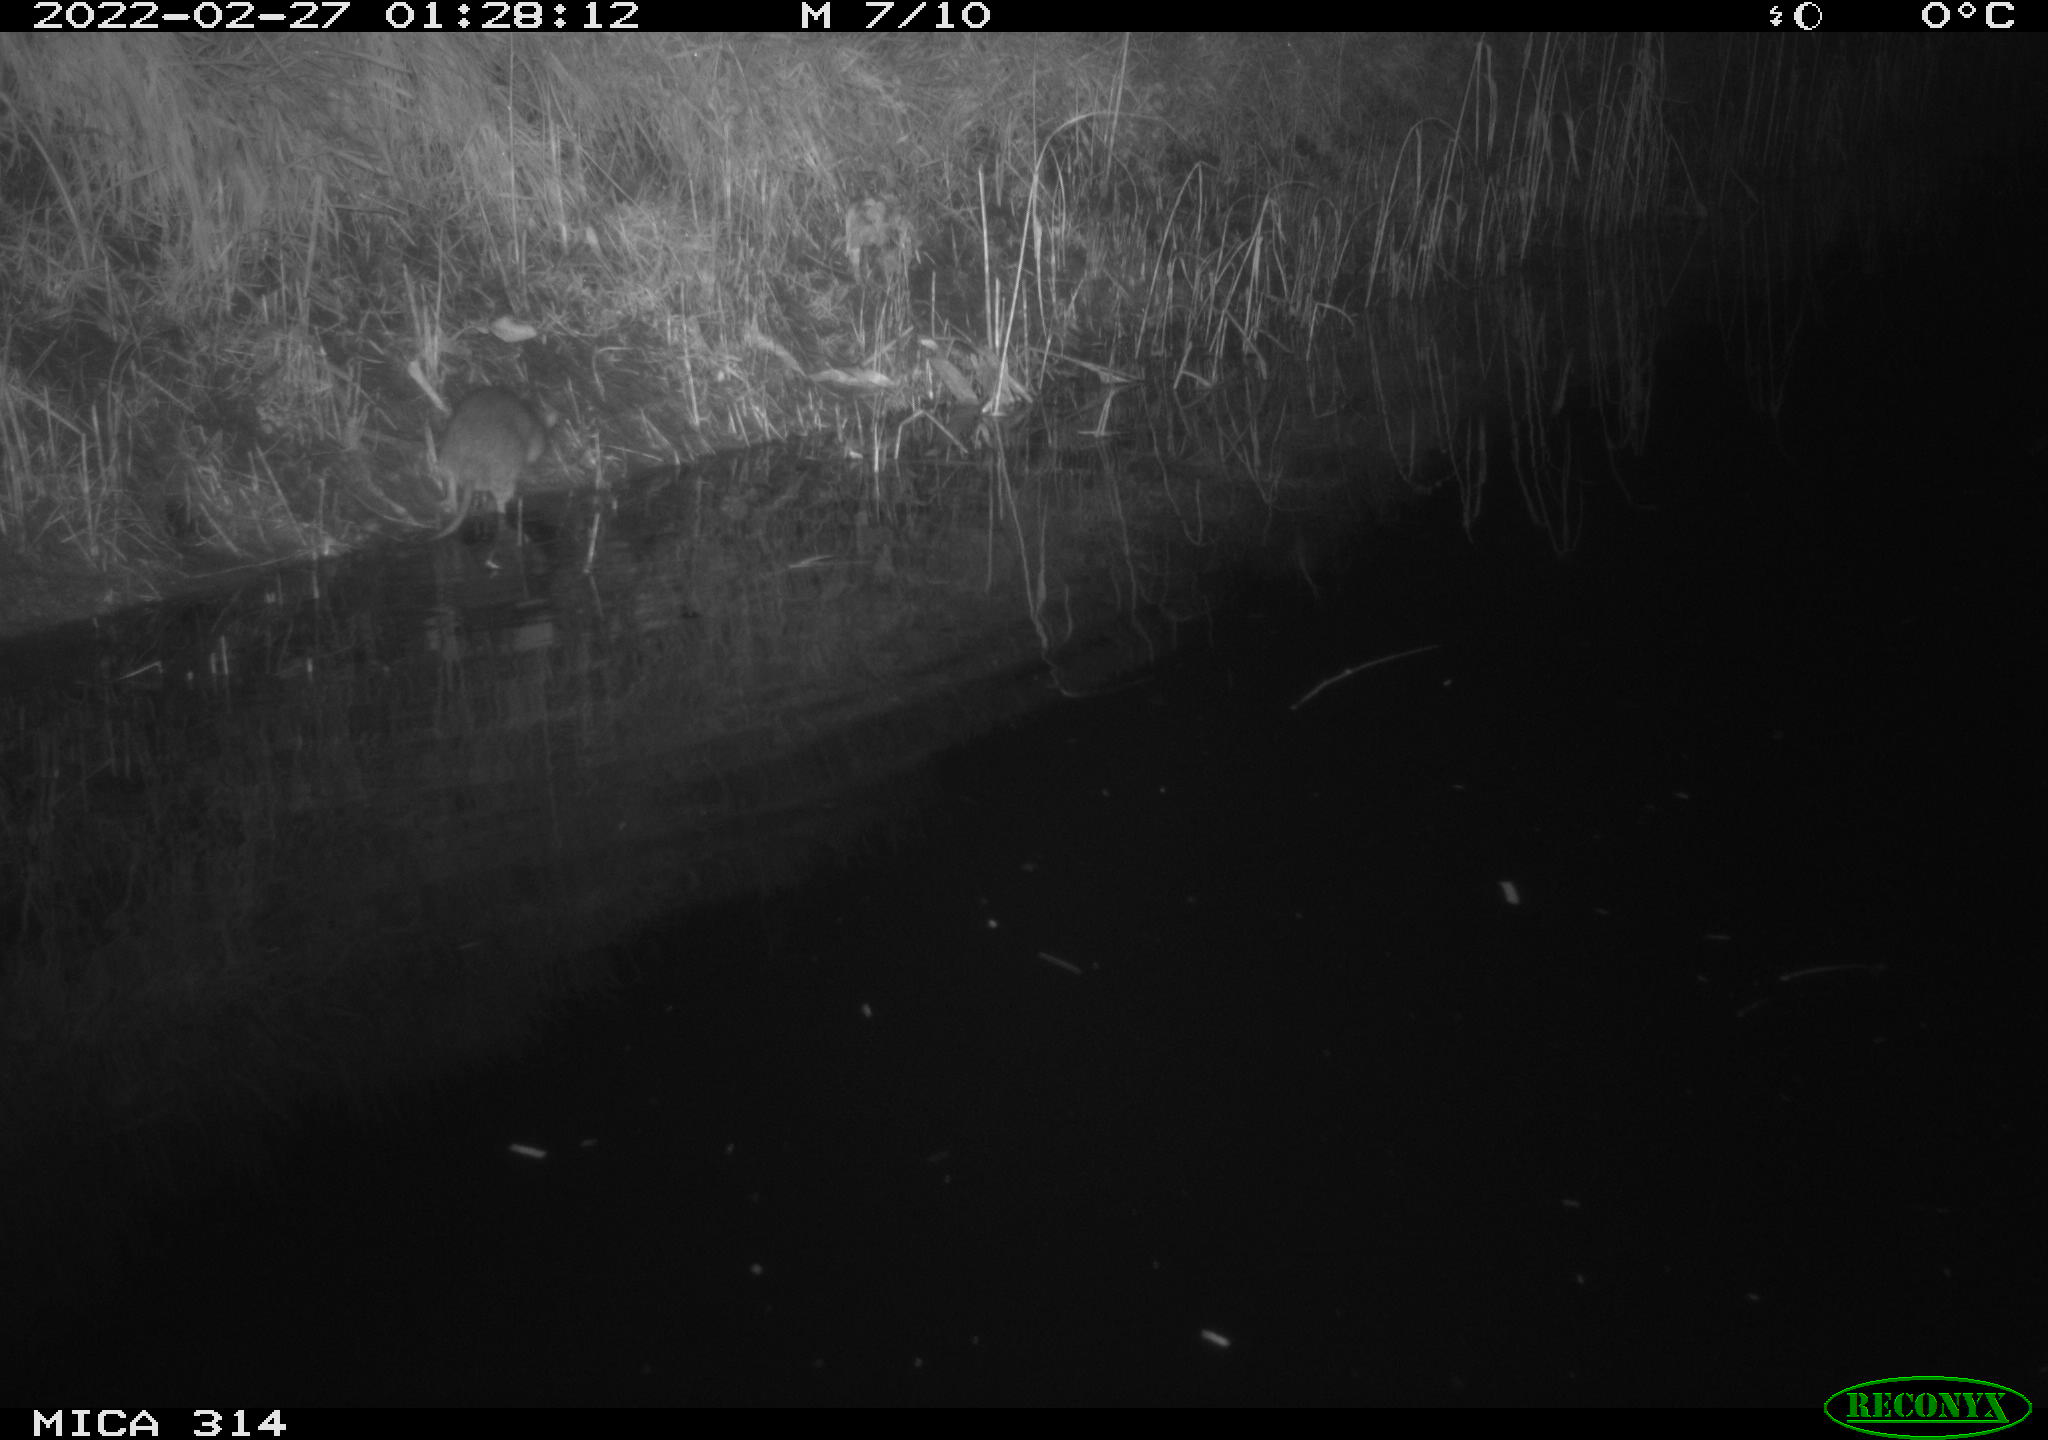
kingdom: Animalia
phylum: Chordata
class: Mammalia
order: Rodentia
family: Muridae
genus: Rattus
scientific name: Rattus norvegicus
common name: Brown rat
